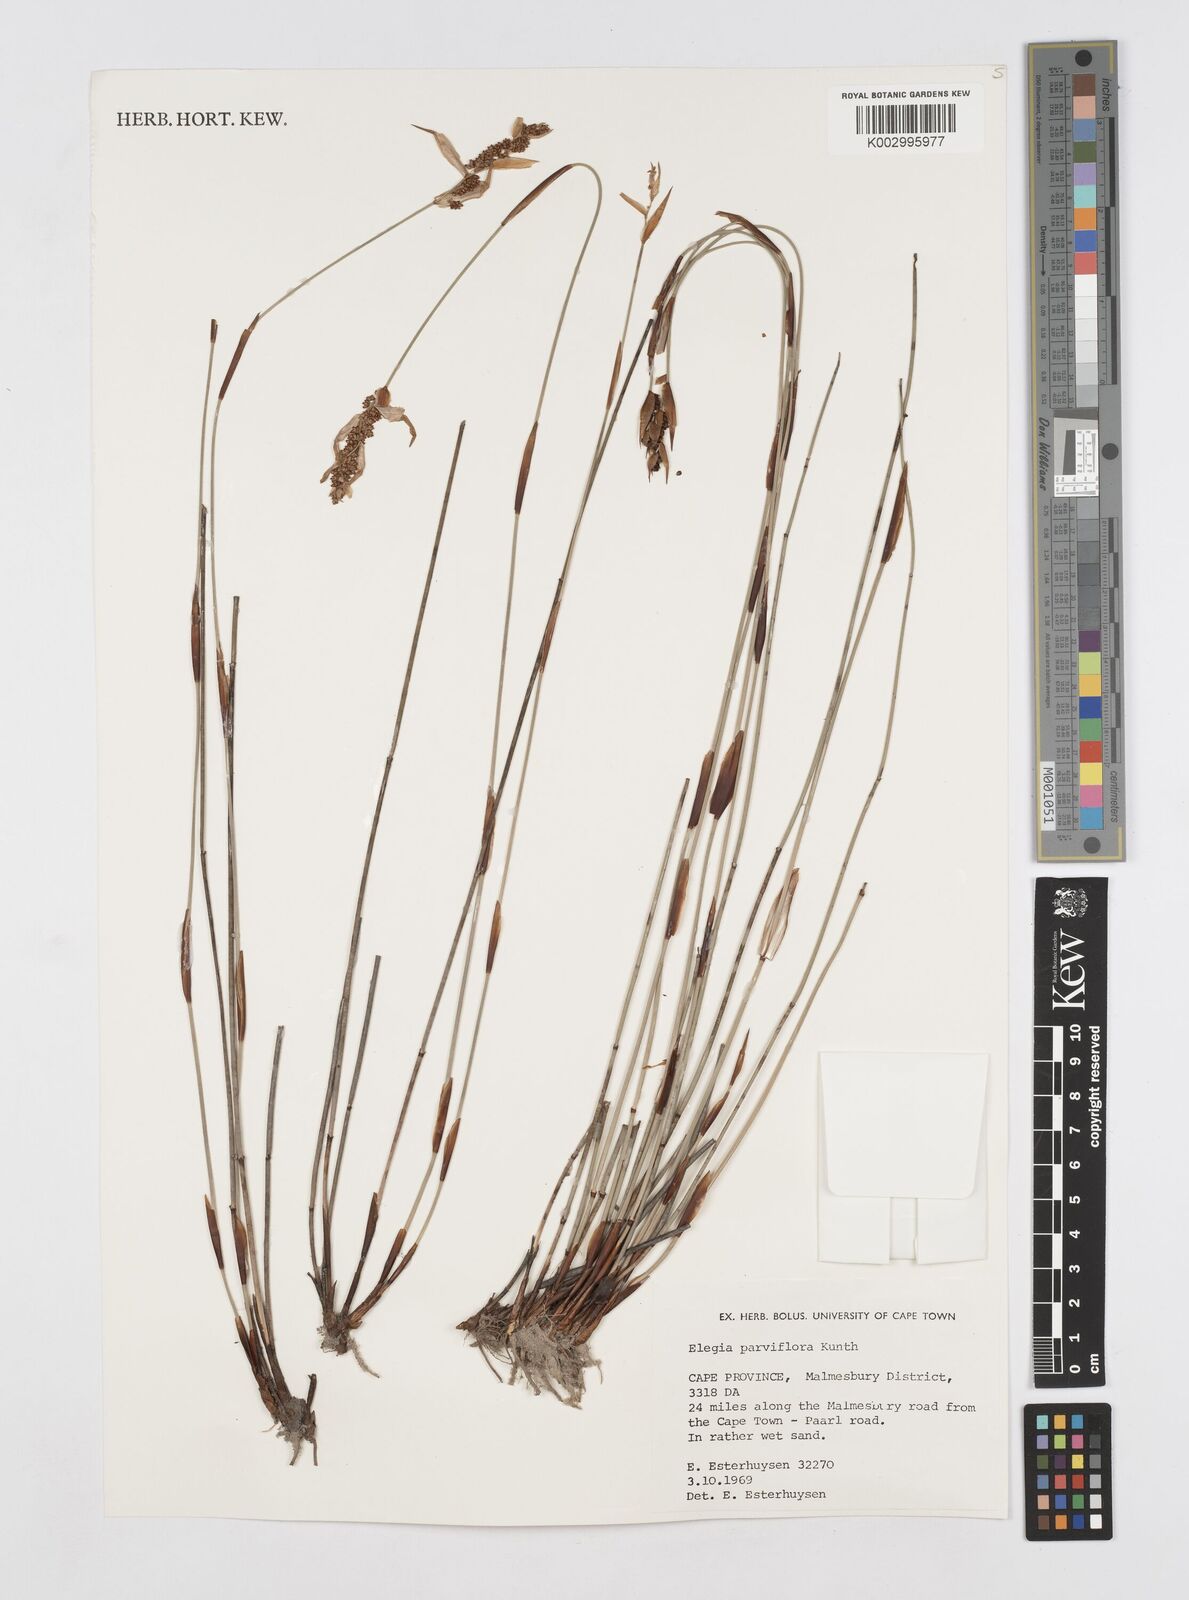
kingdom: Plantae
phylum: Tracheophyta
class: Liliopsida
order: Poales
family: Restionaceae
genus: Cannomois
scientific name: Cannomois parviflora
